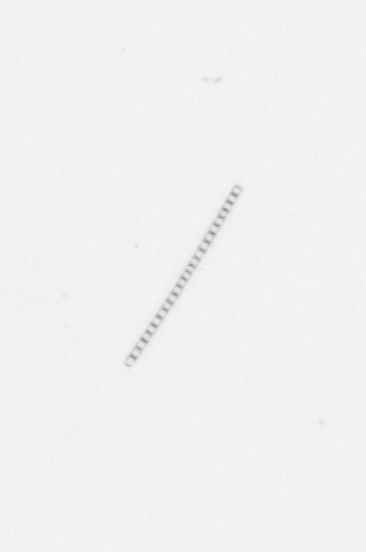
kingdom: Chromista
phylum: Ochrophyta
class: Bacillariophyceae
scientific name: Bacillariophyceae
